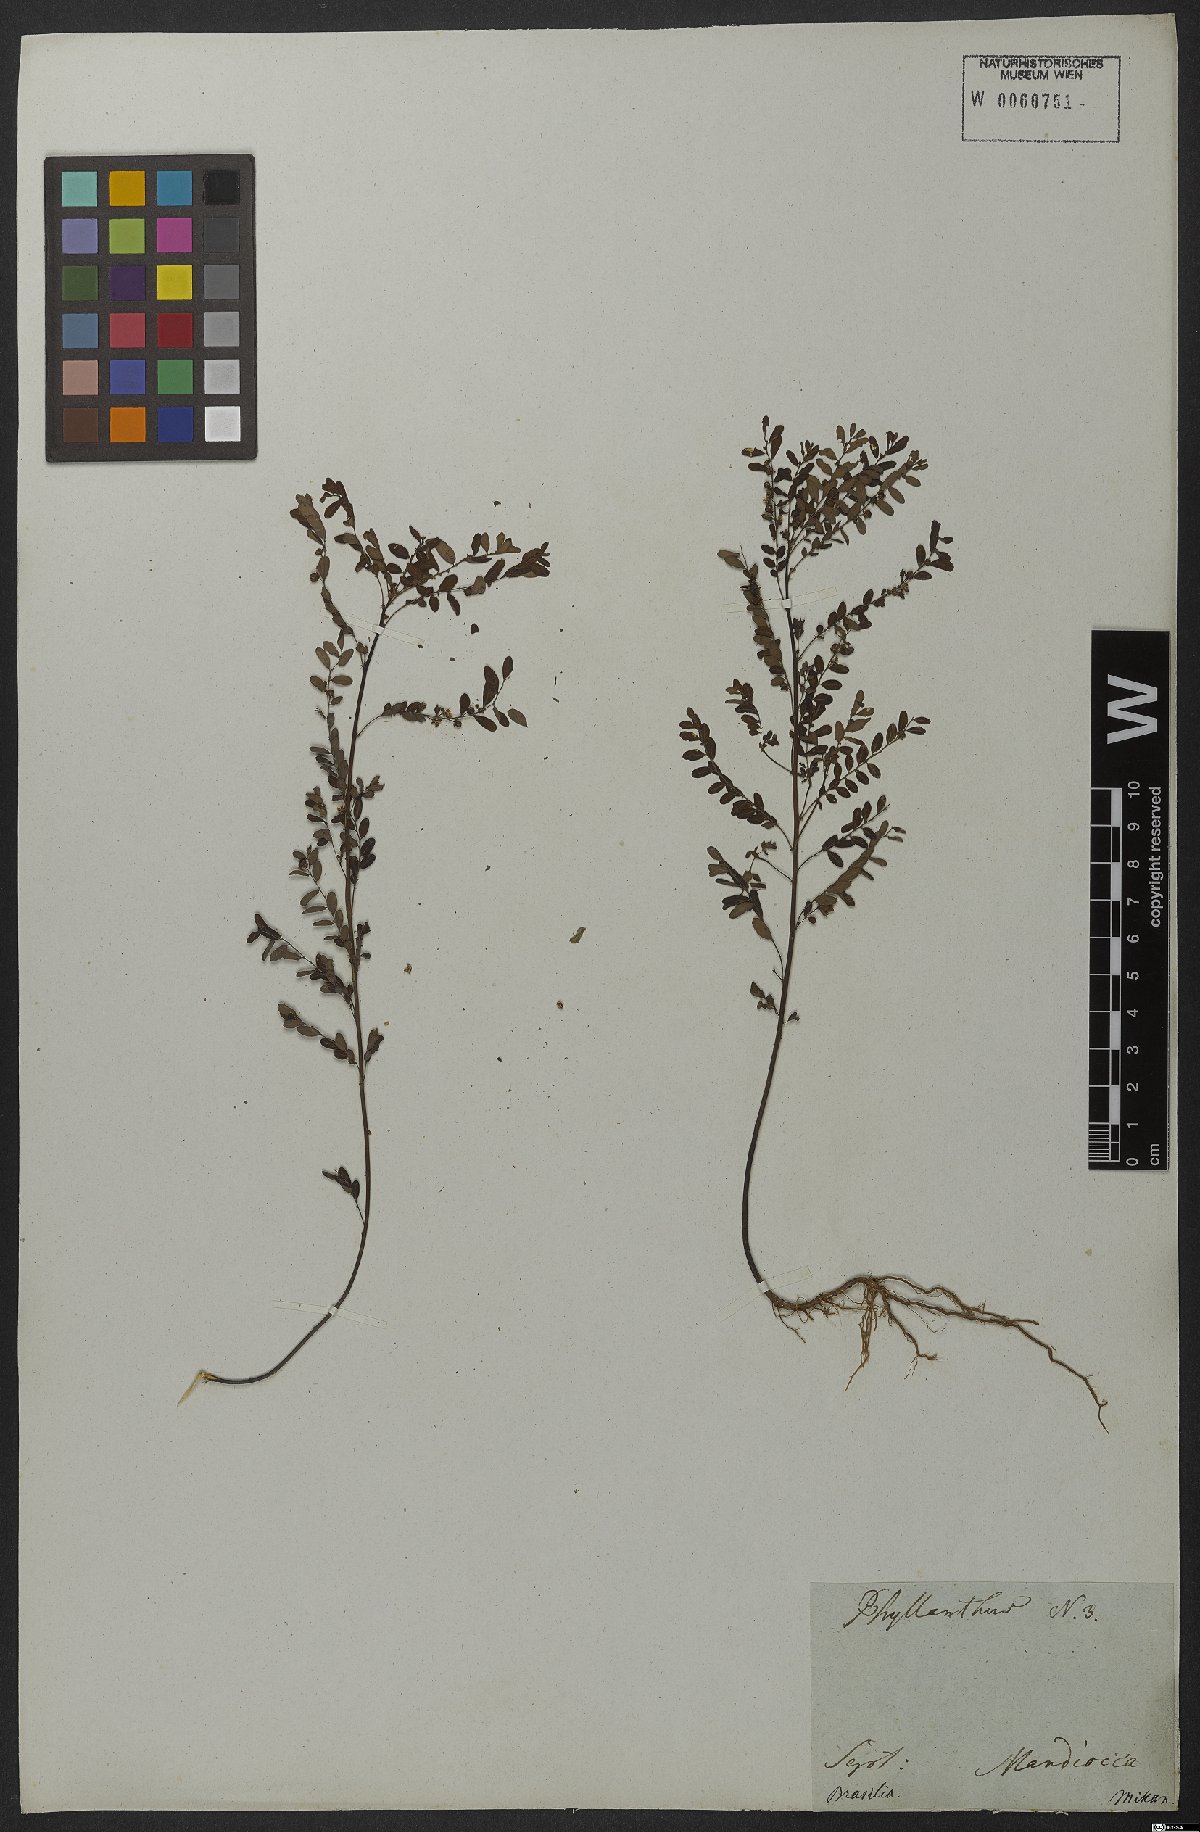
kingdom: Plantae
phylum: Tracheophyta
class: Magnoliopsida
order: Malpighiales
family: Phyllanthaceae
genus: Phyllanthus
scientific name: Phyllanthus urinaria
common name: Chamber bitter
